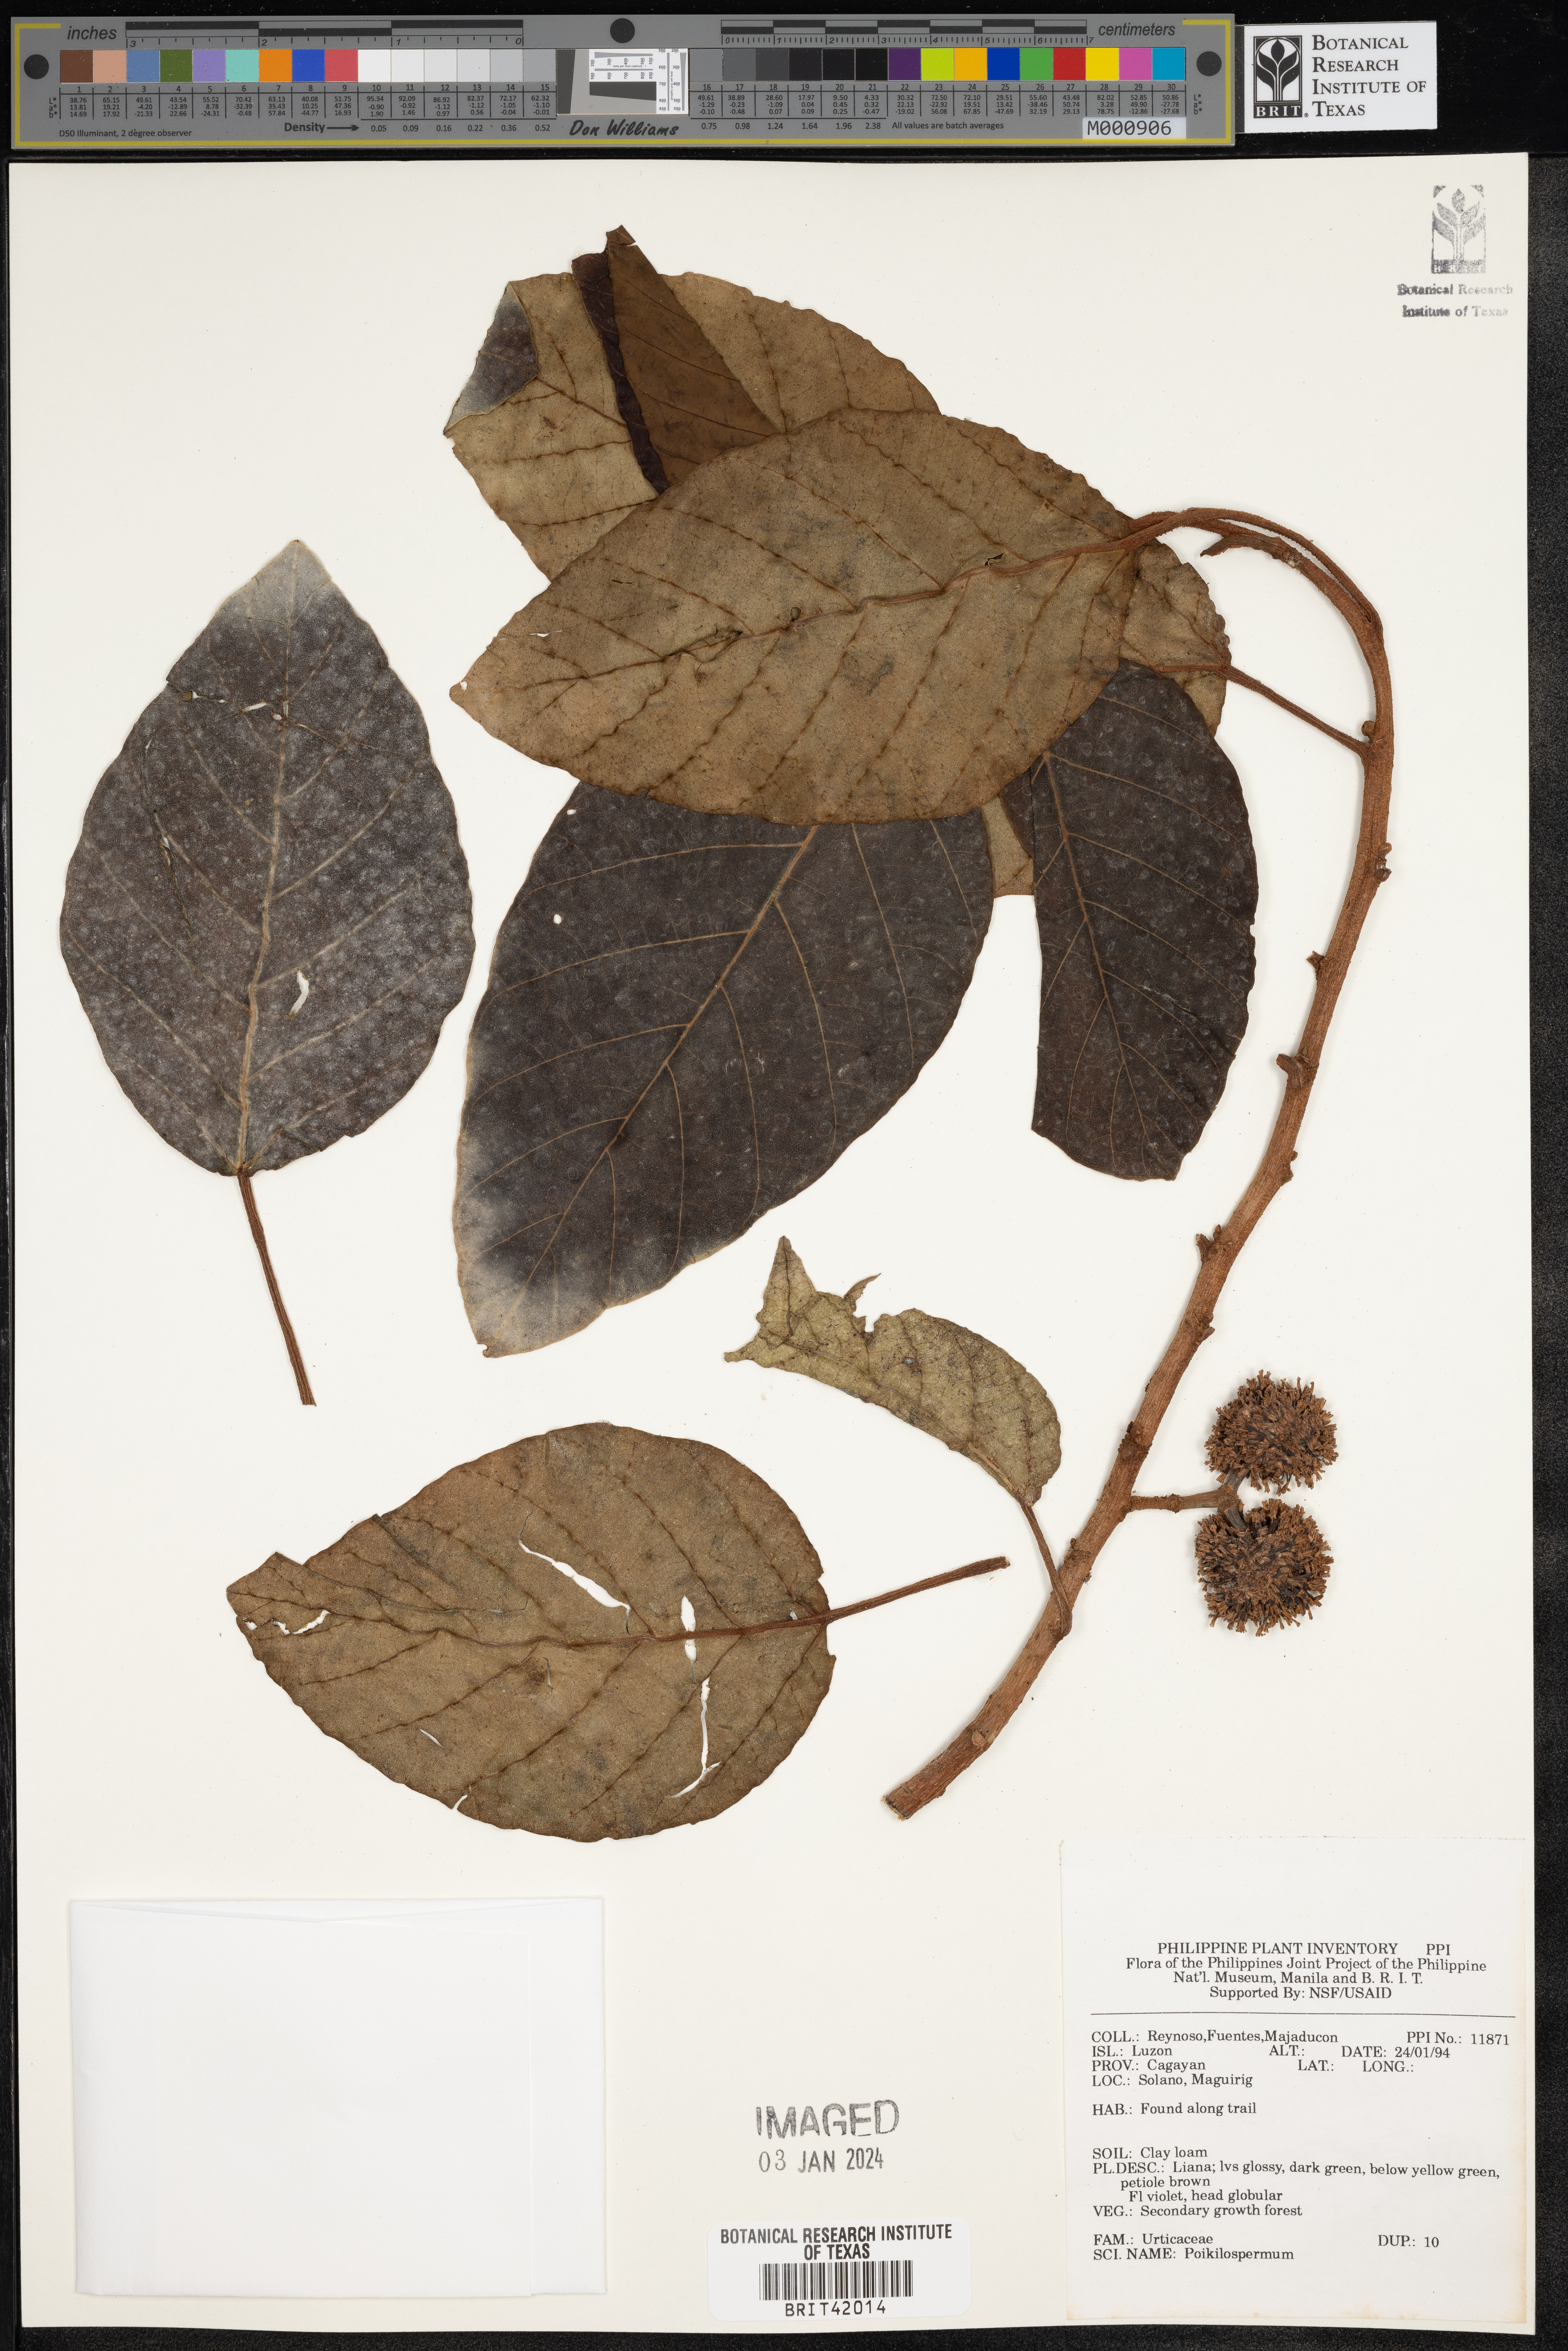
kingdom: Plantae
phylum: Tracheophyta
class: Magnoliopsida
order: Rosales
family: Urticaceae
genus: Poikilospermum
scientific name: Poikilospermum
